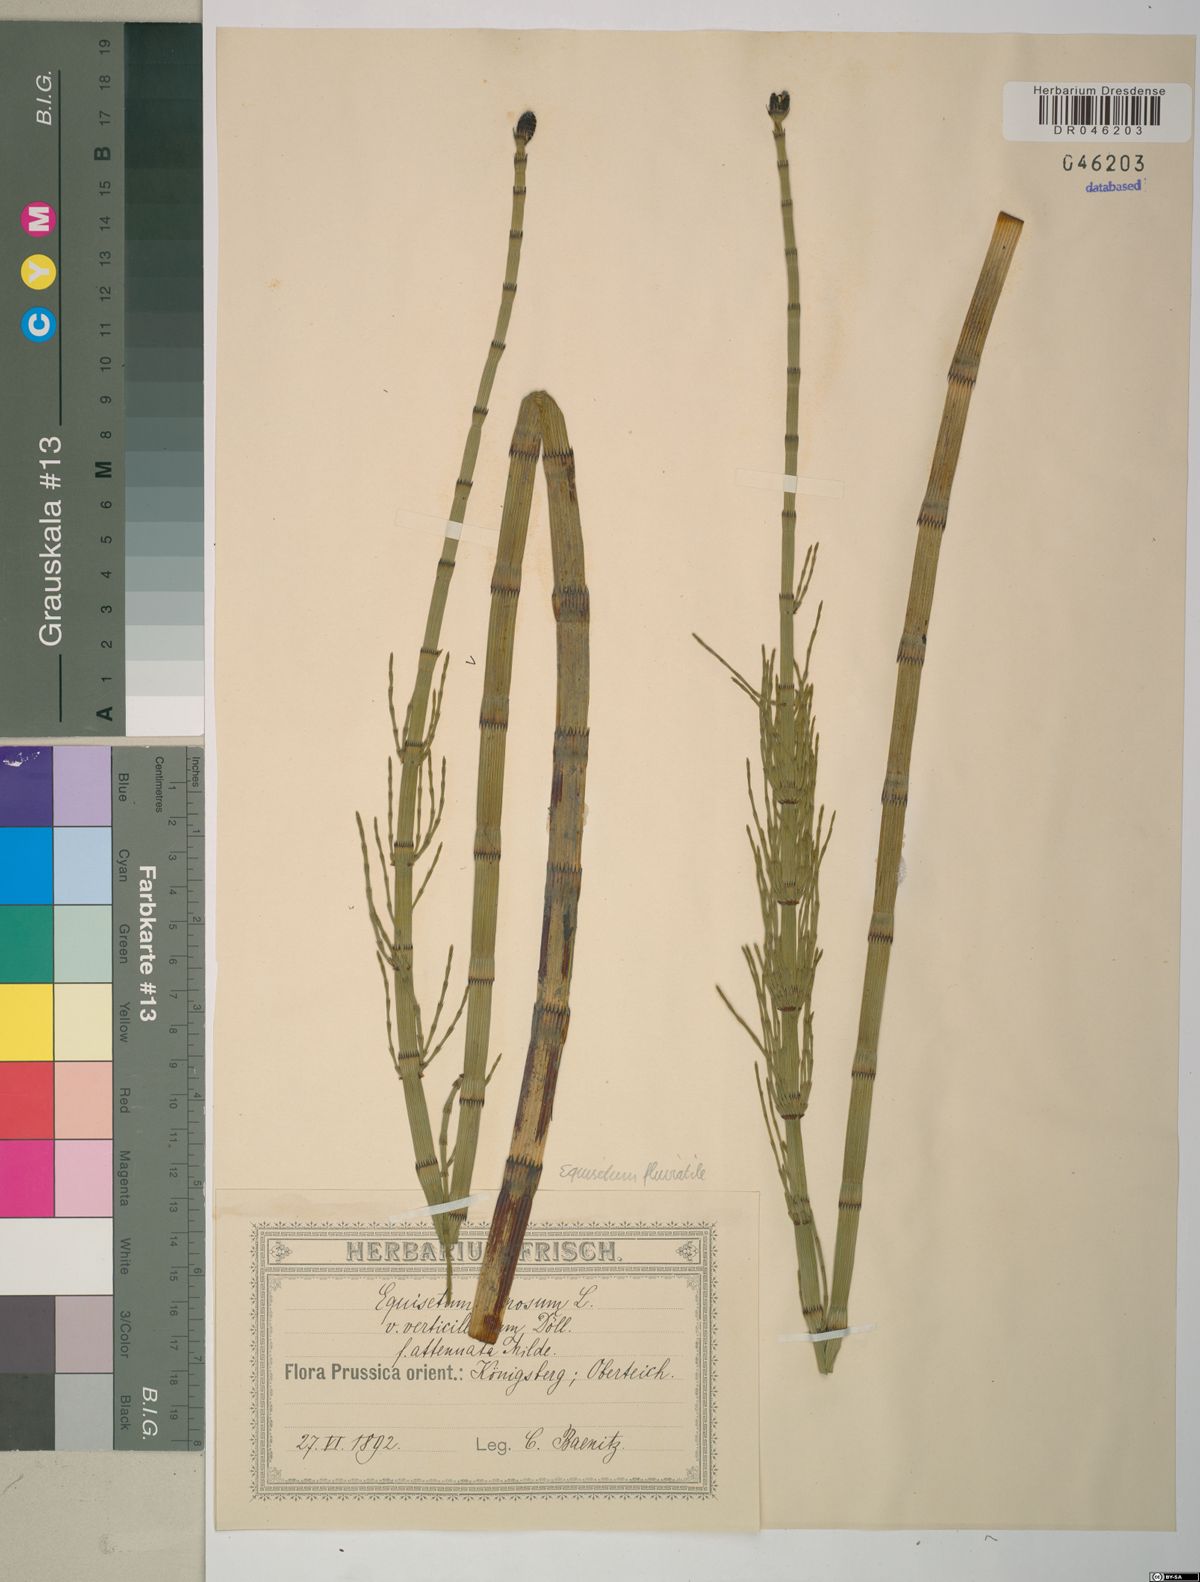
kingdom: Plantae
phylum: Tracheophyta
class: Polypodiopsida
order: Equisetales
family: Equisetaceae
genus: Equisetum
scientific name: Equisetum fluviatile
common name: Water horsetail
